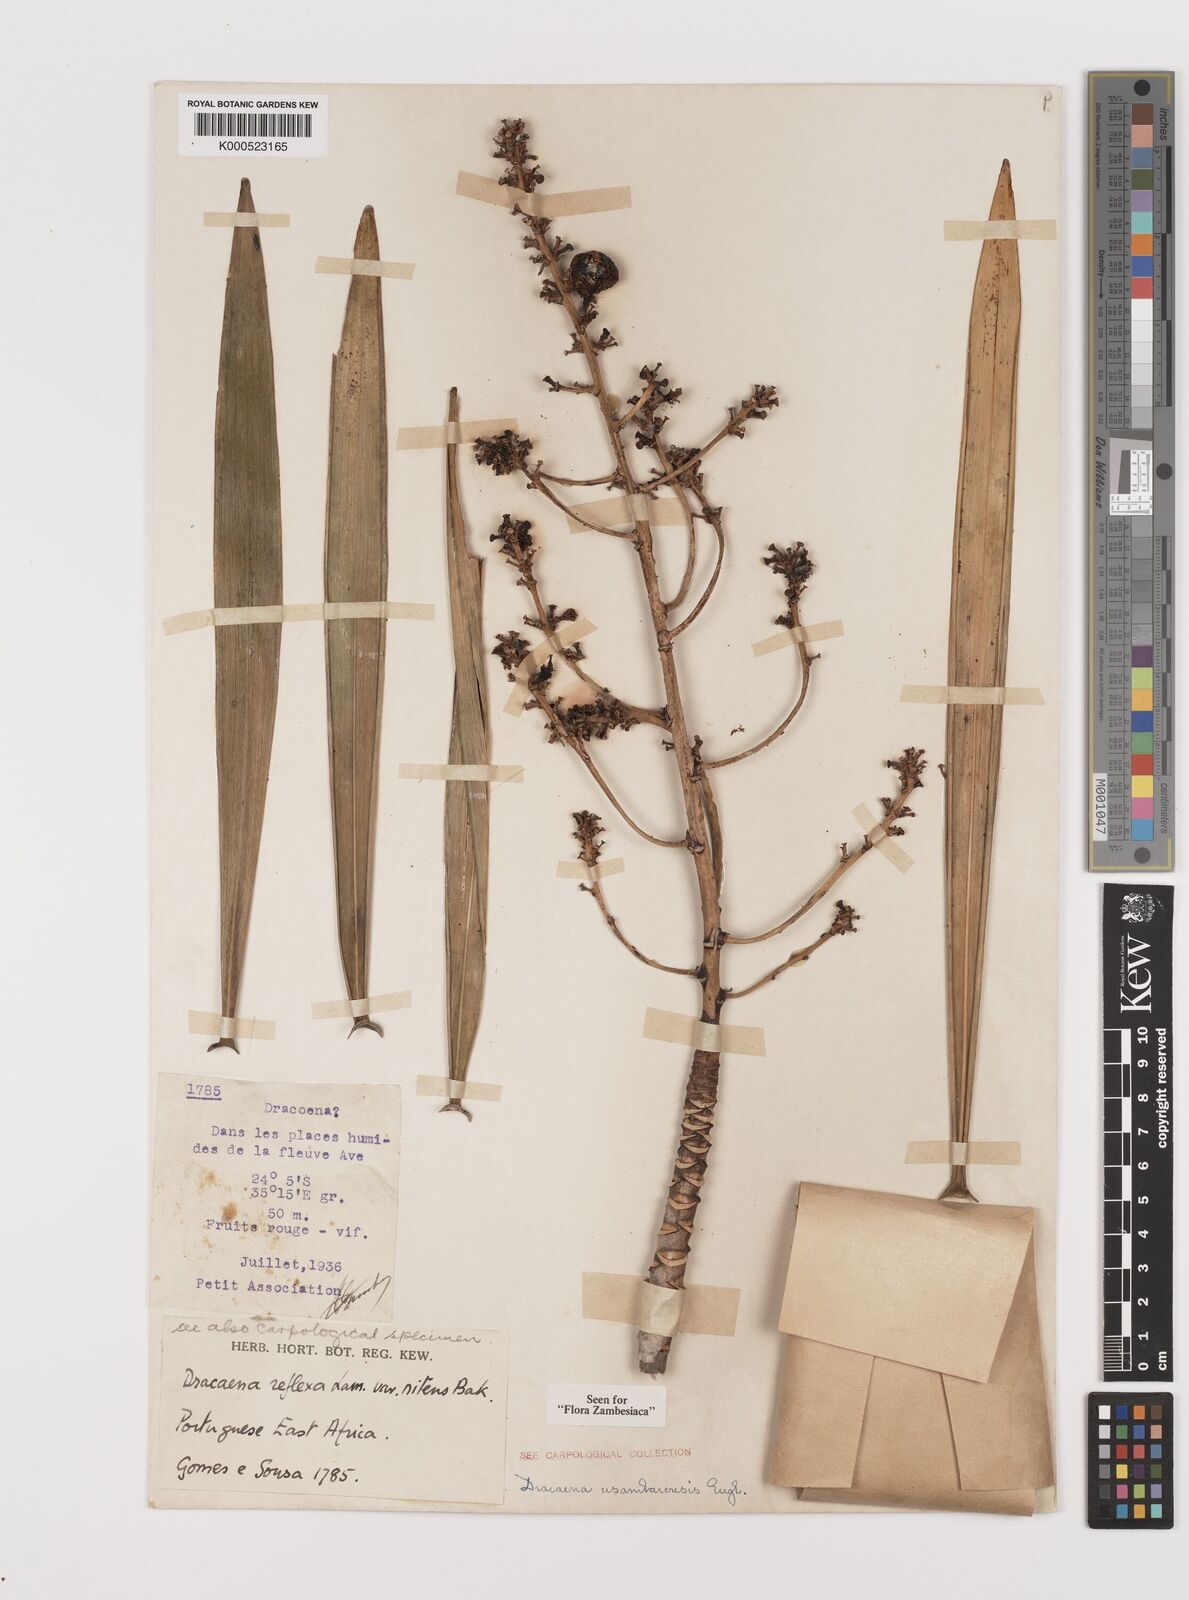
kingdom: Plantae
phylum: Tracheophyta
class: Liliopsida
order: Asparagales
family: Asparagaceae
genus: Dracaena
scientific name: Dracaena usambarensis
